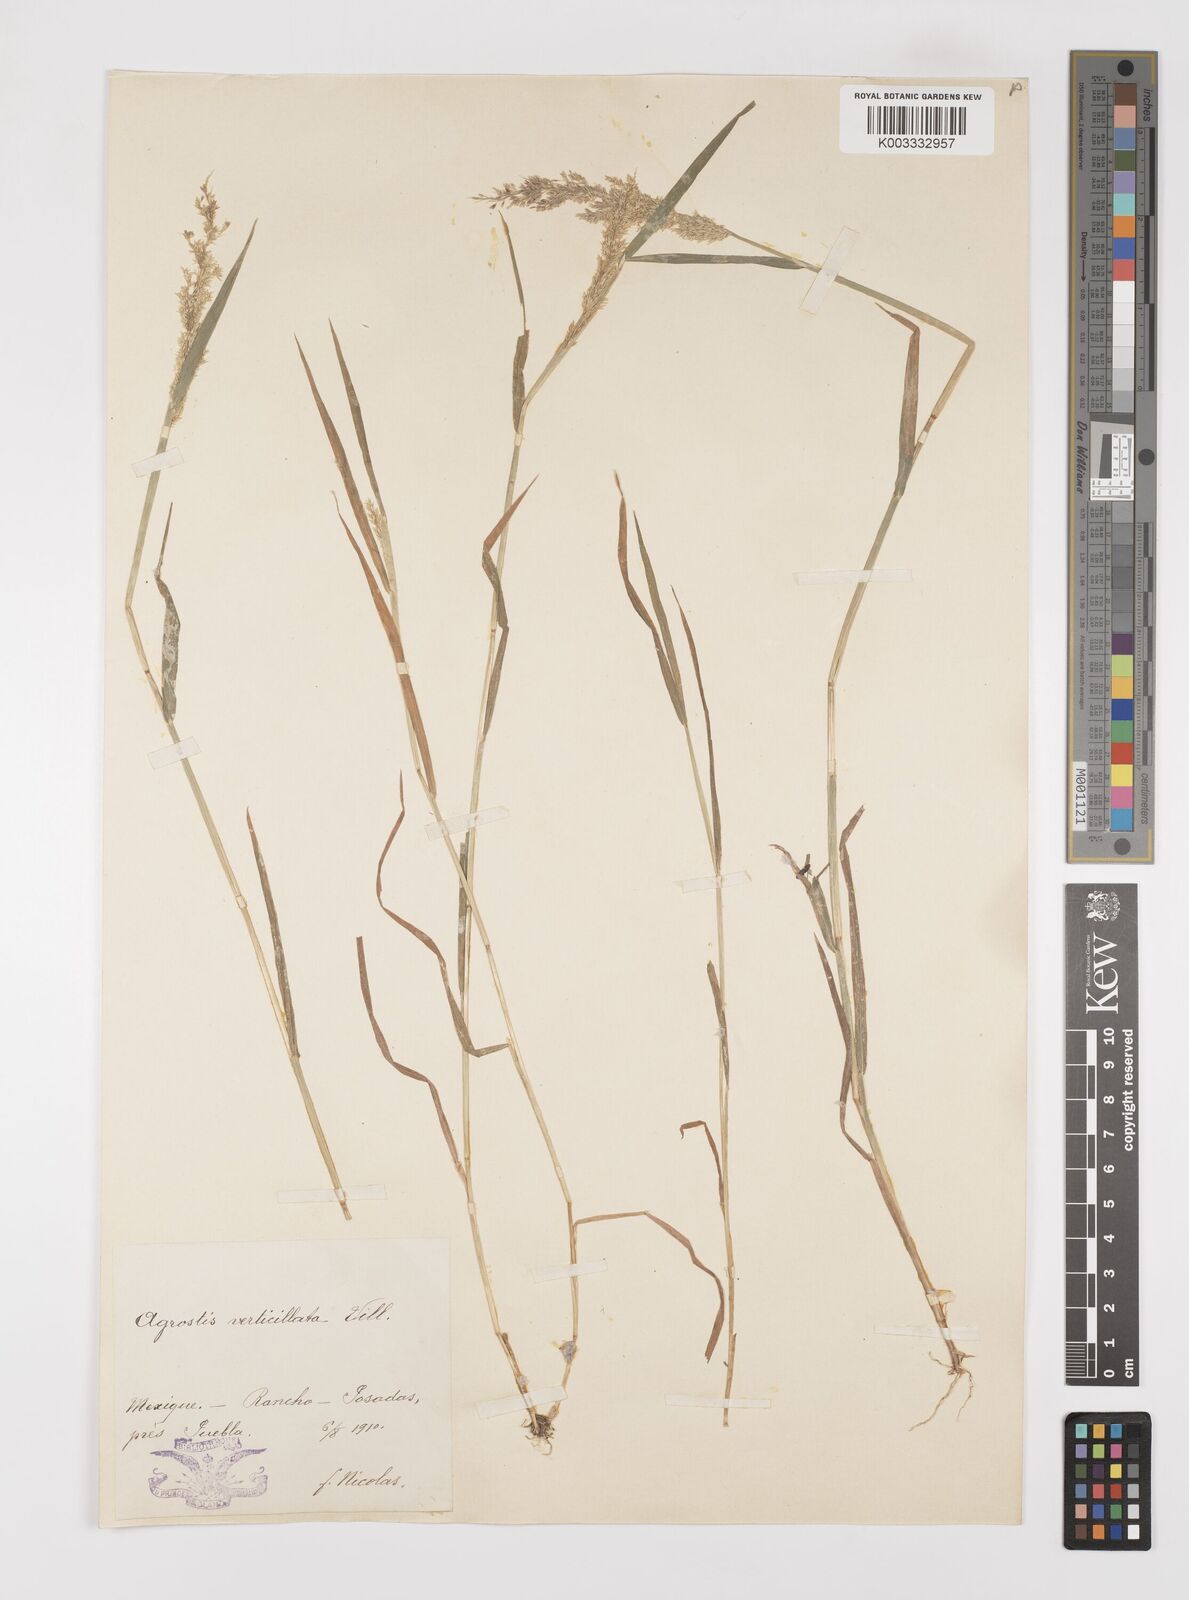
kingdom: Plantae
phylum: Tracheophyta
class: Liliopsida
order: Poales
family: Poaceae
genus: Polypogon
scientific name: Polypogon viridis
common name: Water bent
